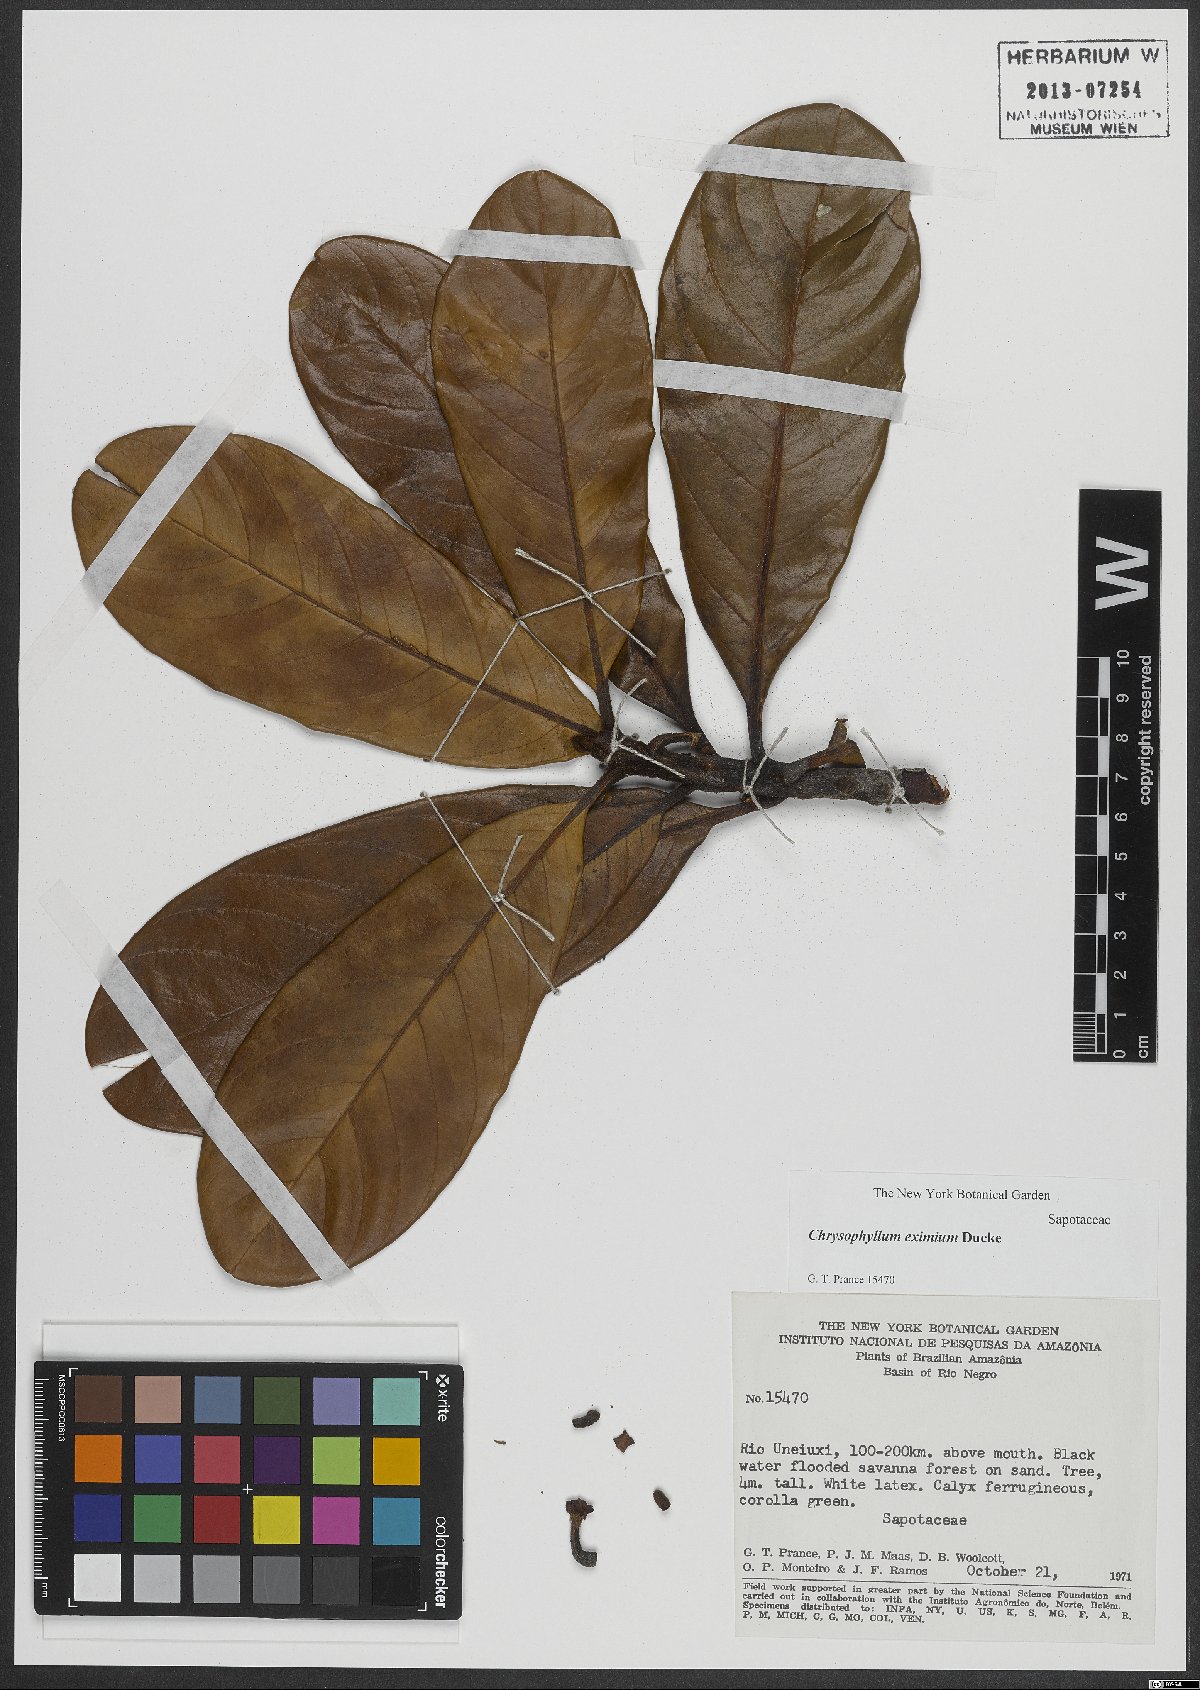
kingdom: Plantae
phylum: Tracheophyta
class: Magnoliopsida
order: Ericales
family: Sapotaceae
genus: Chrysophyllum
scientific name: Chrysophyllum eximium
